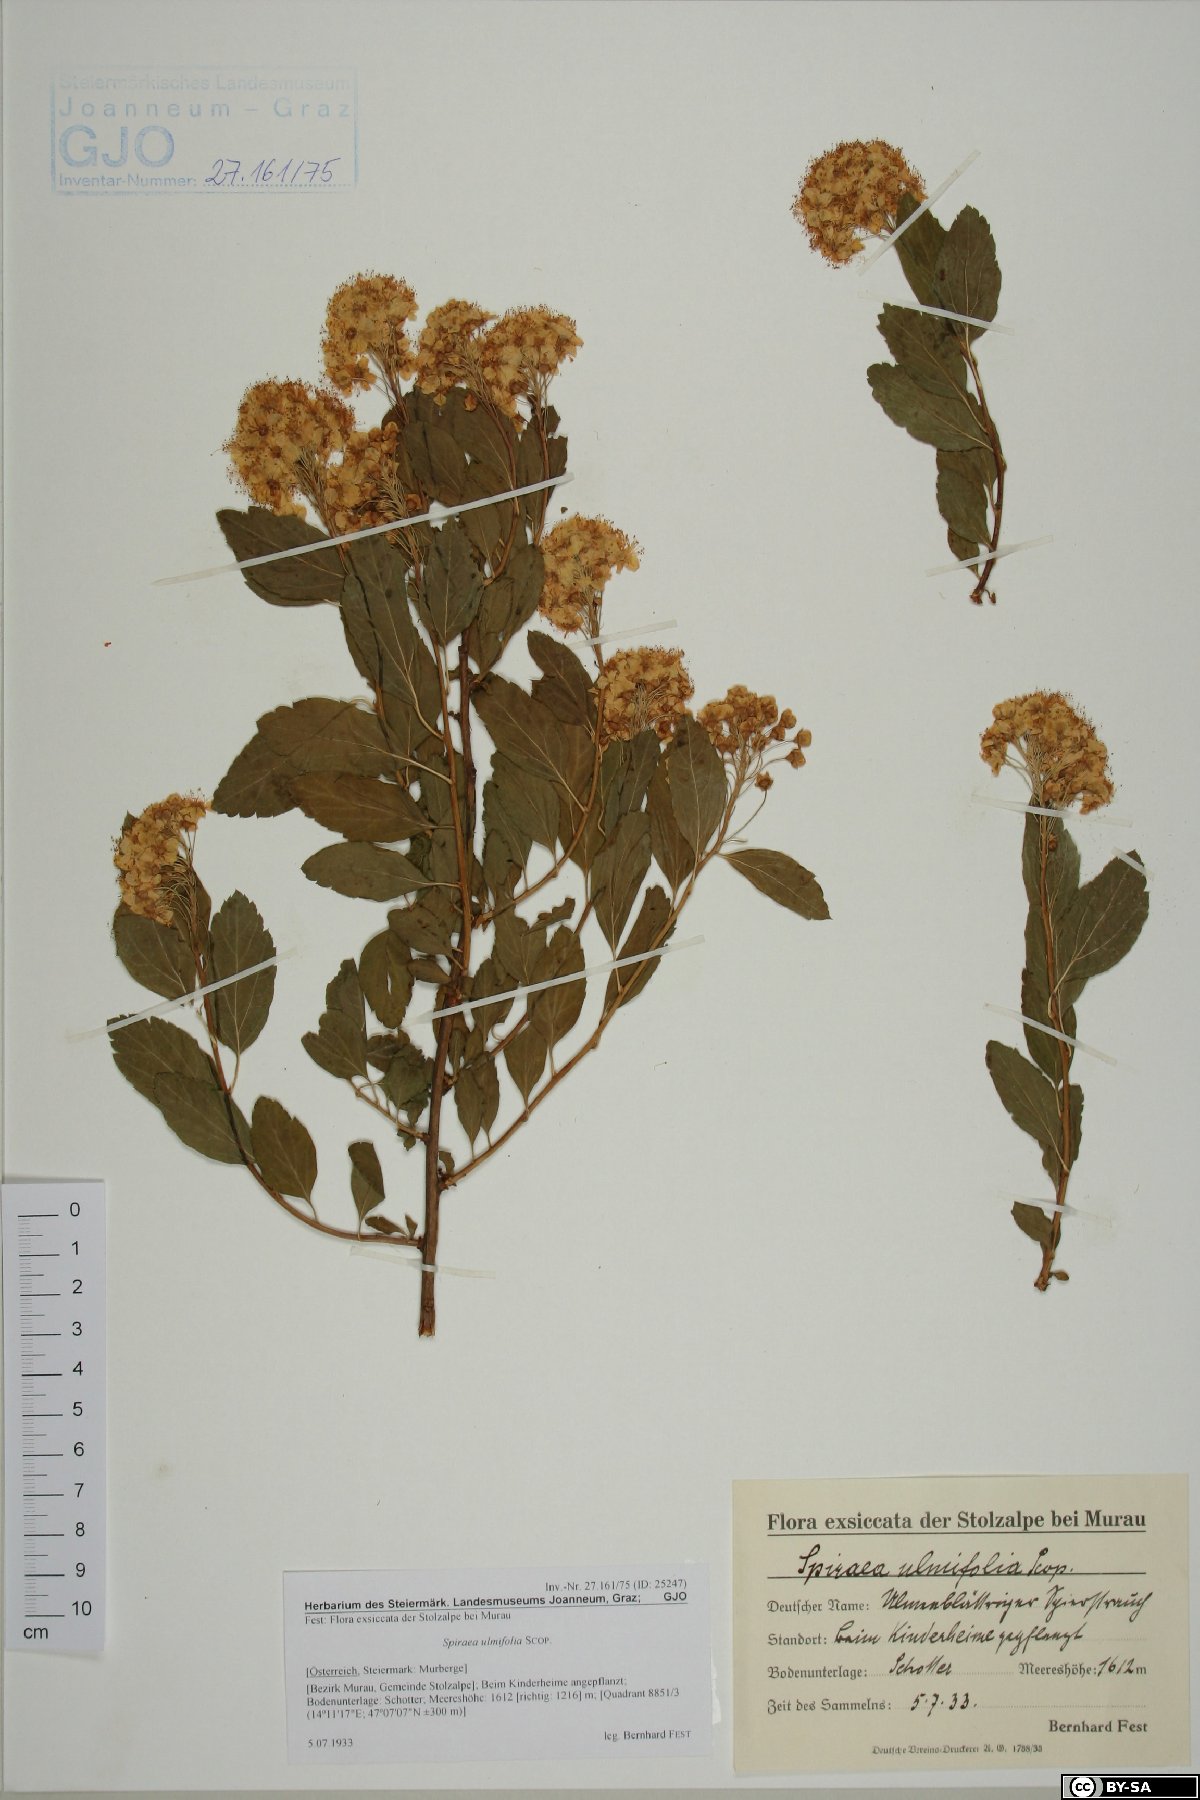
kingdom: Plantae
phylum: Tracheophyta
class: Magnoliopsida
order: Rosales
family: Rosaceae
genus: Spiraea
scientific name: Spiraea chamaedryfolia
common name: Elm-leaved spiraea
